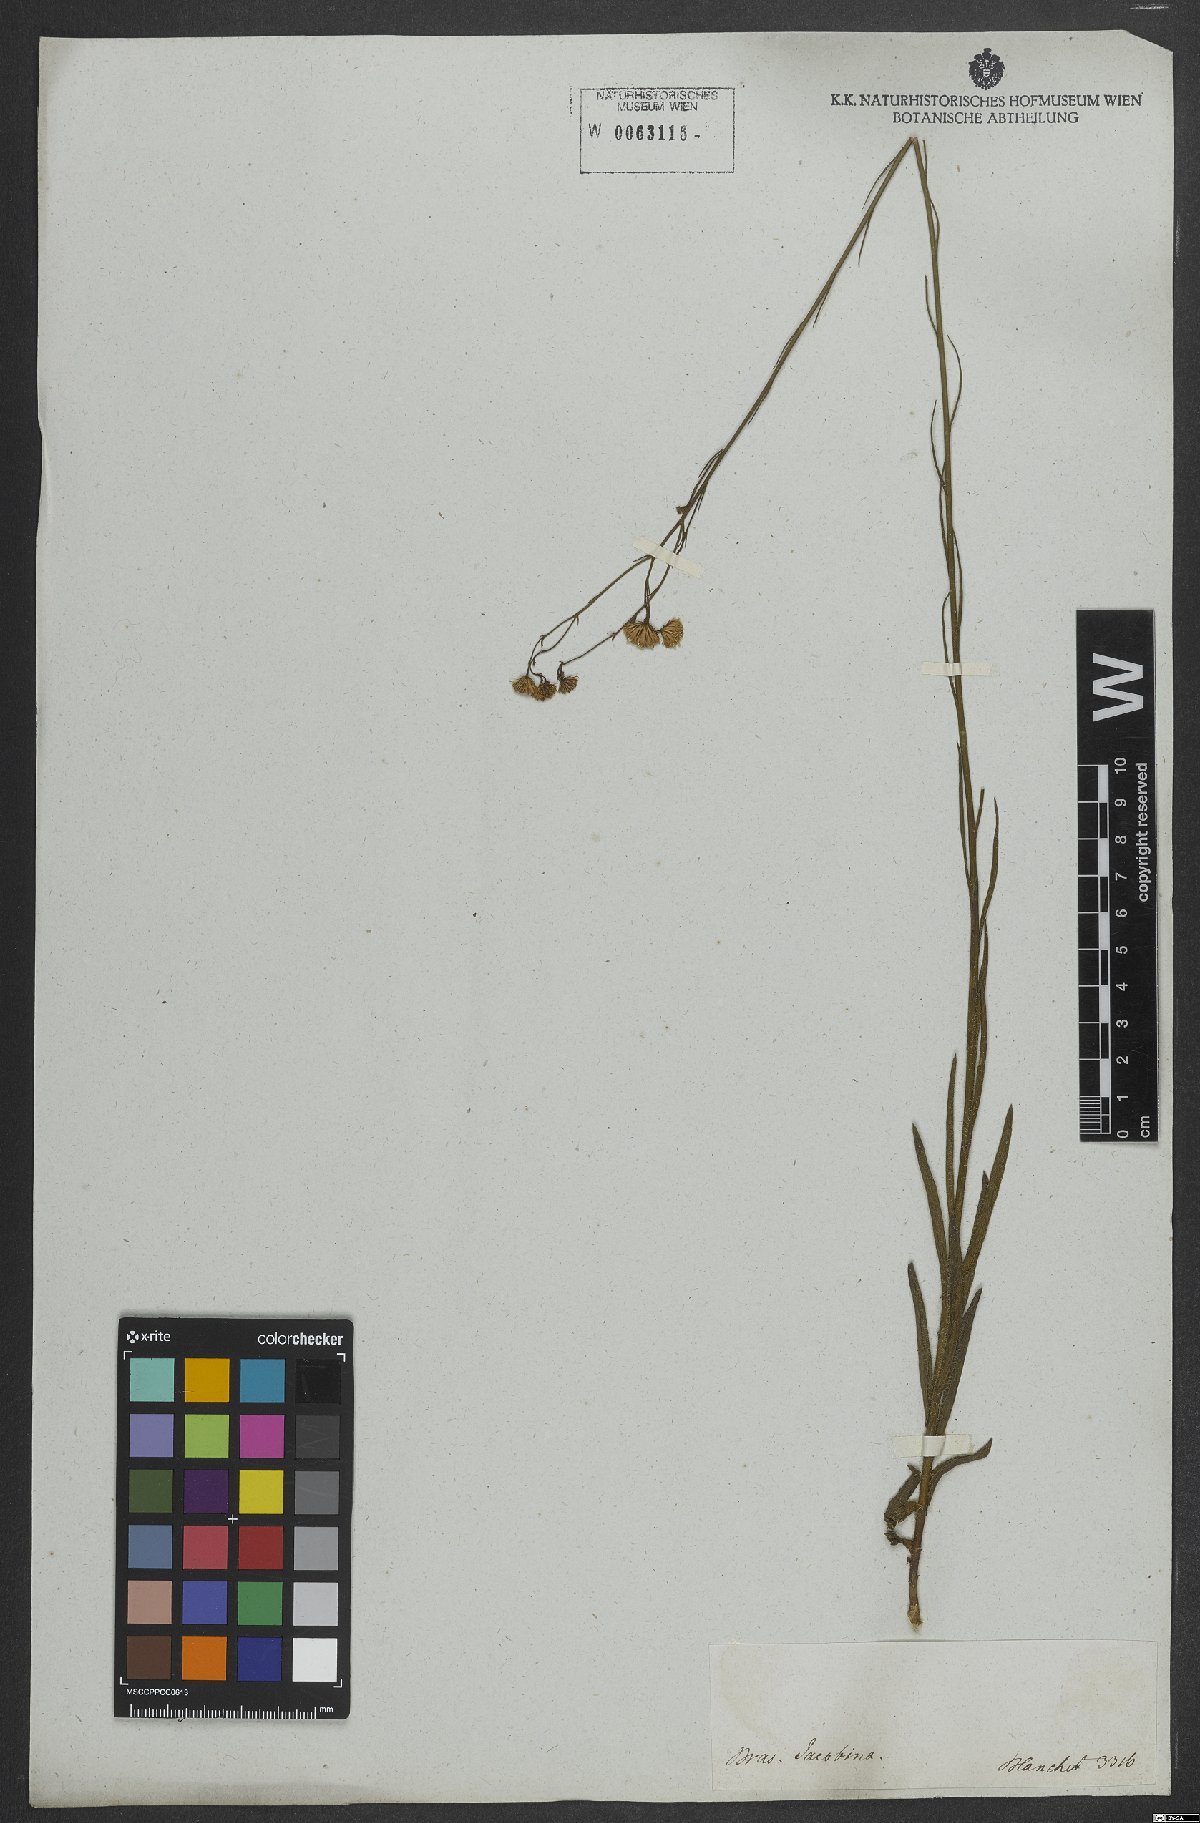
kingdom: Plantae
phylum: Tracheophyta
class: Magnoliopsida
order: Asterales
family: Asteraceae
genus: Erigeron
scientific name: Erigeron
